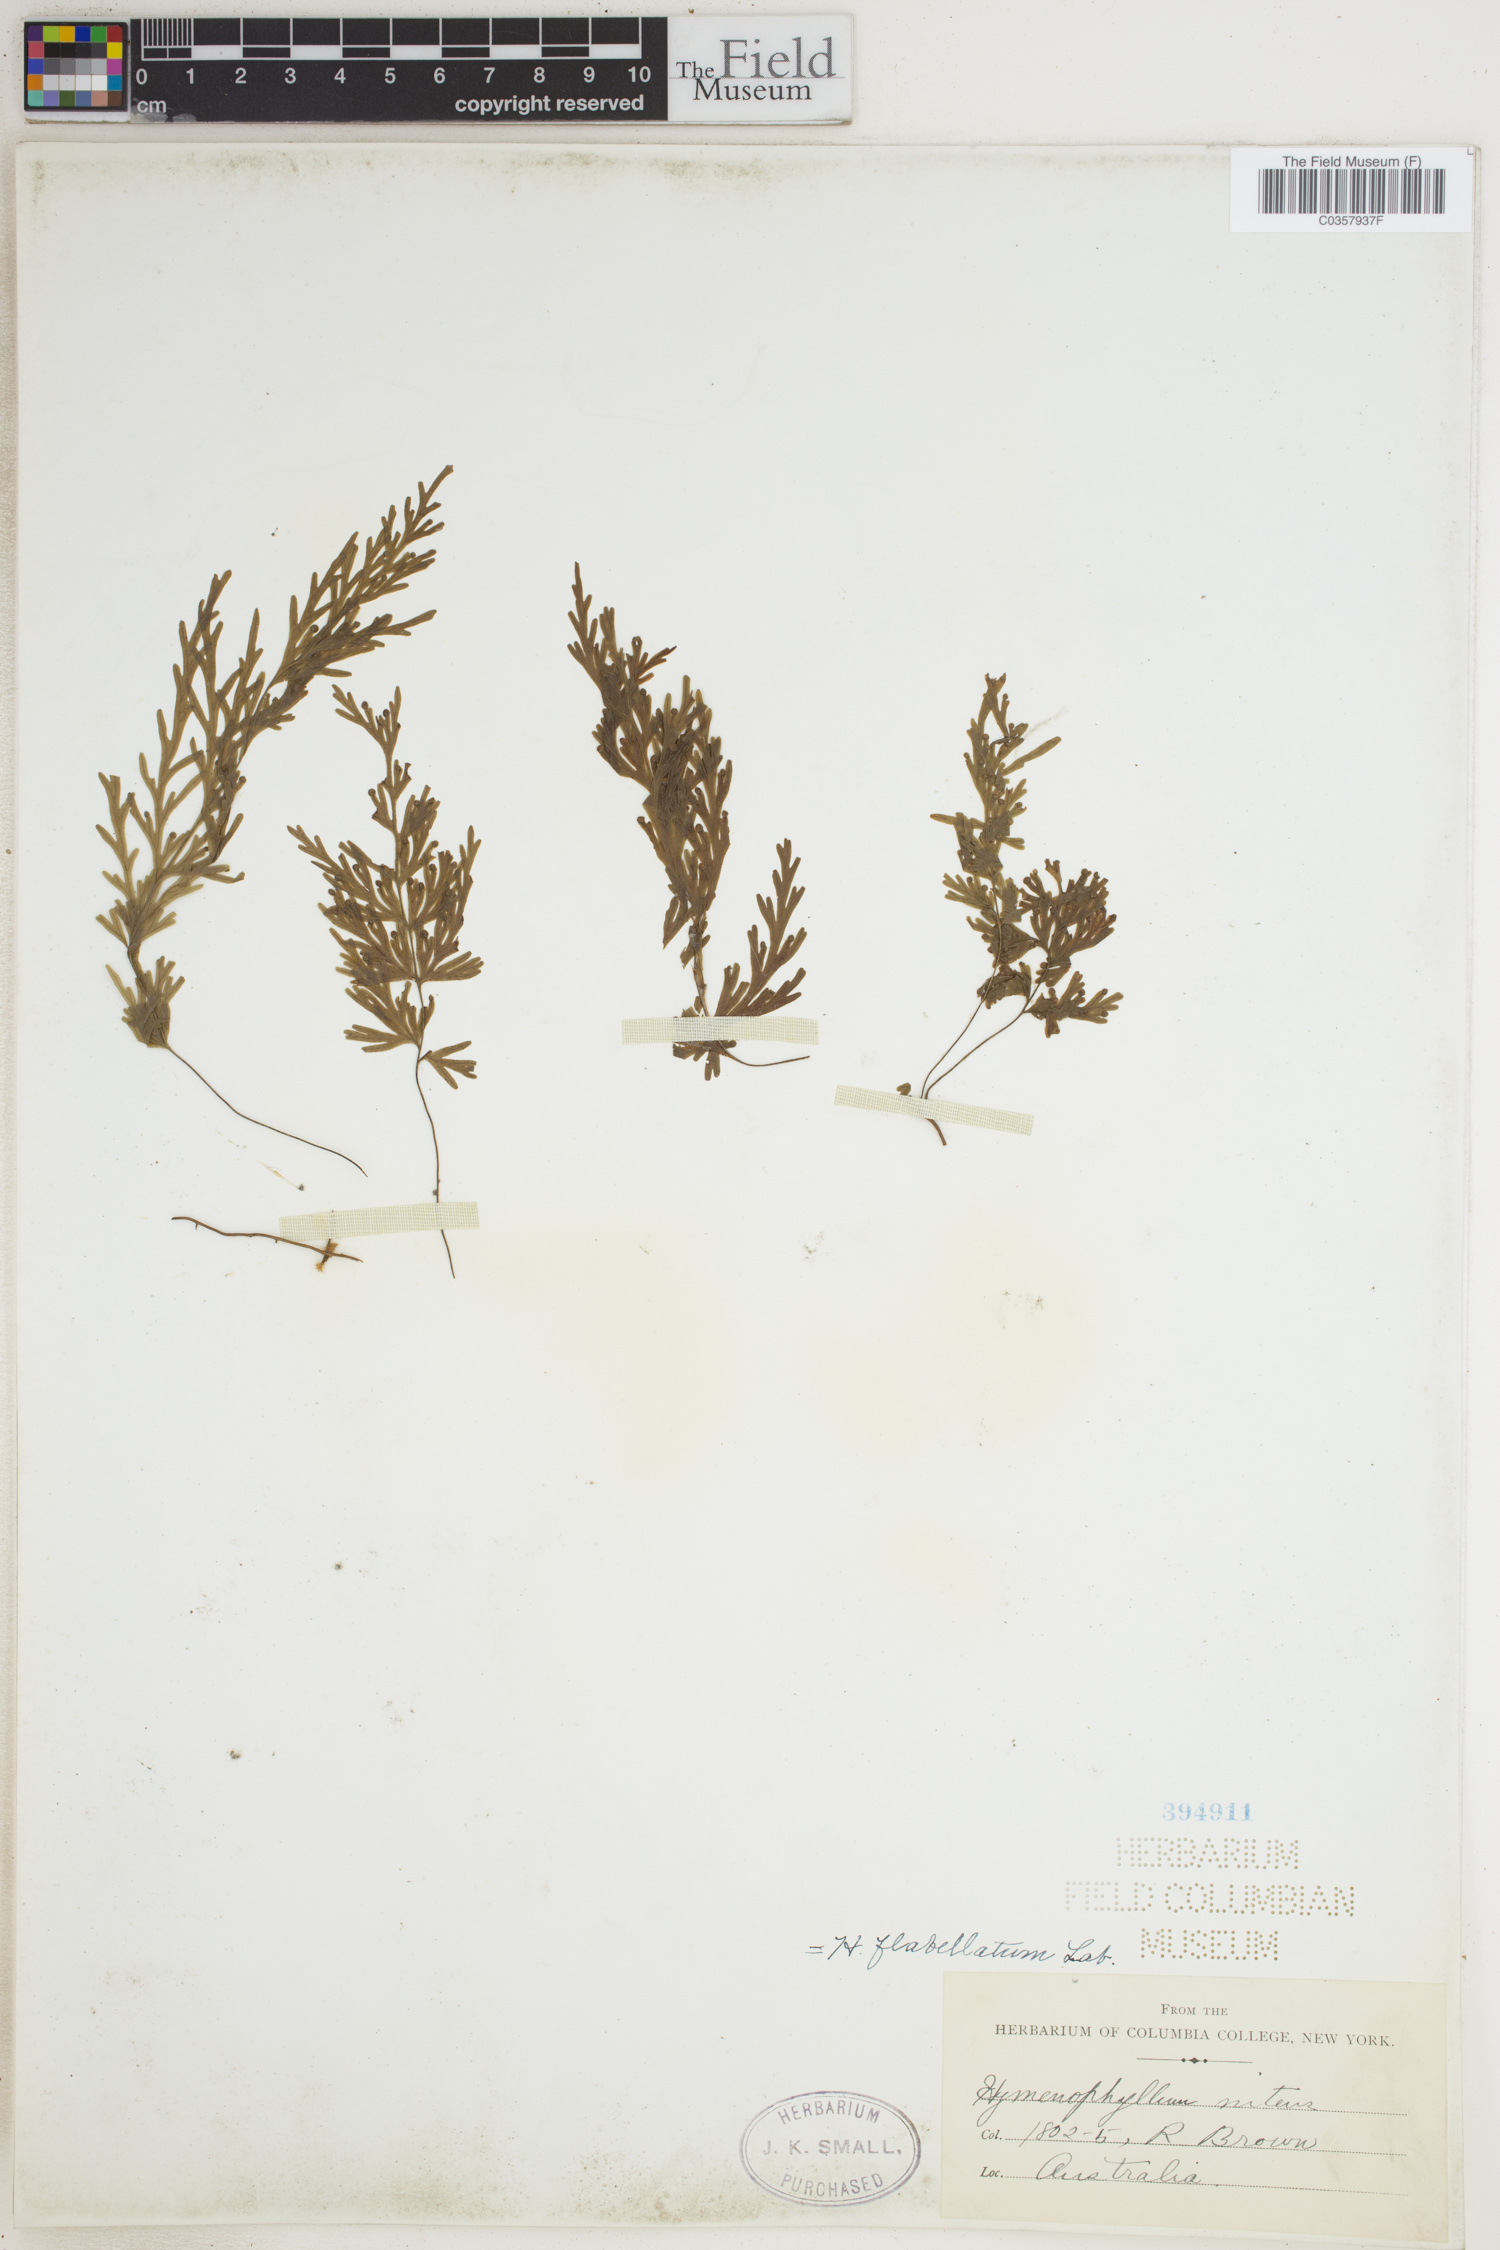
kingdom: Plantae
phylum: Tracheophyta
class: Polypodiopsida
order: Hymenophyllales
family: Hymenophyllaceae
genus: Hymenophyllum
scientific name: Hymenophyllum flabellatum
